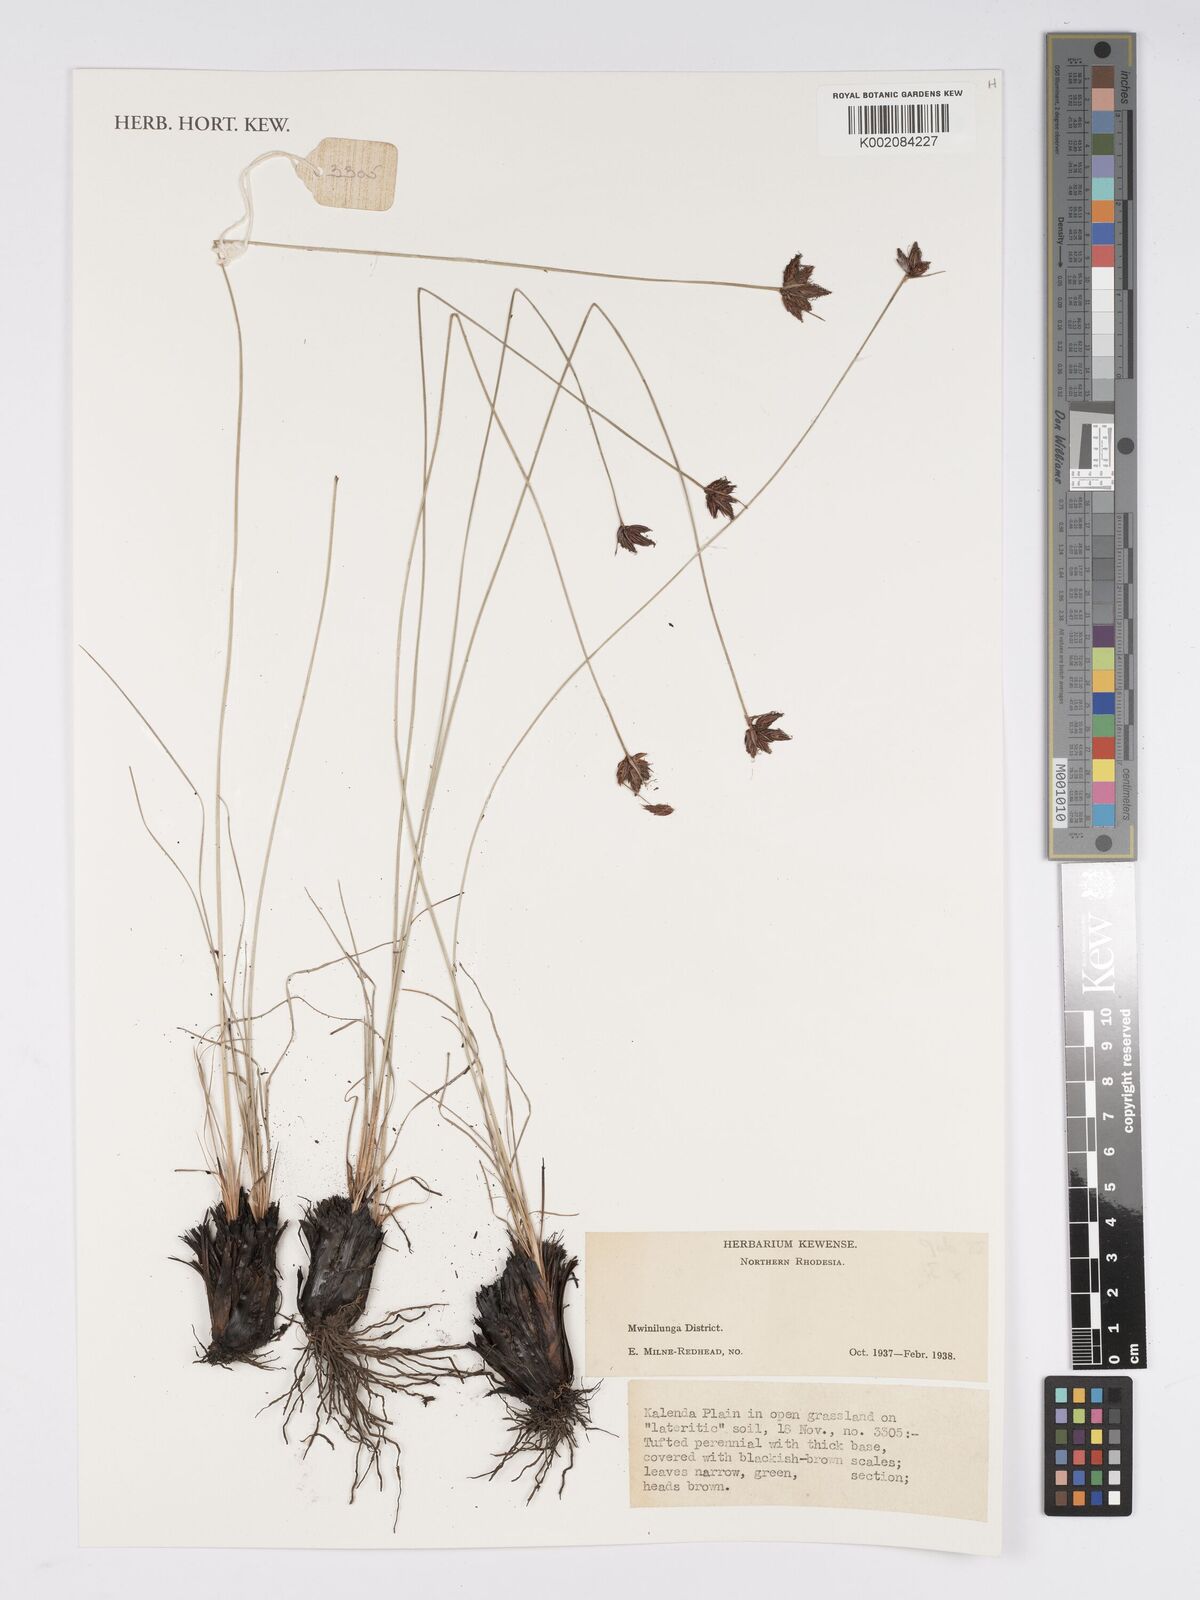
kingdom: Plantae
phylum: Tracheophyta
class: Liliopsida
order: Poales
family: Cyperaceae
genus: Bulbostylis
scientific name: Bulbostylis
